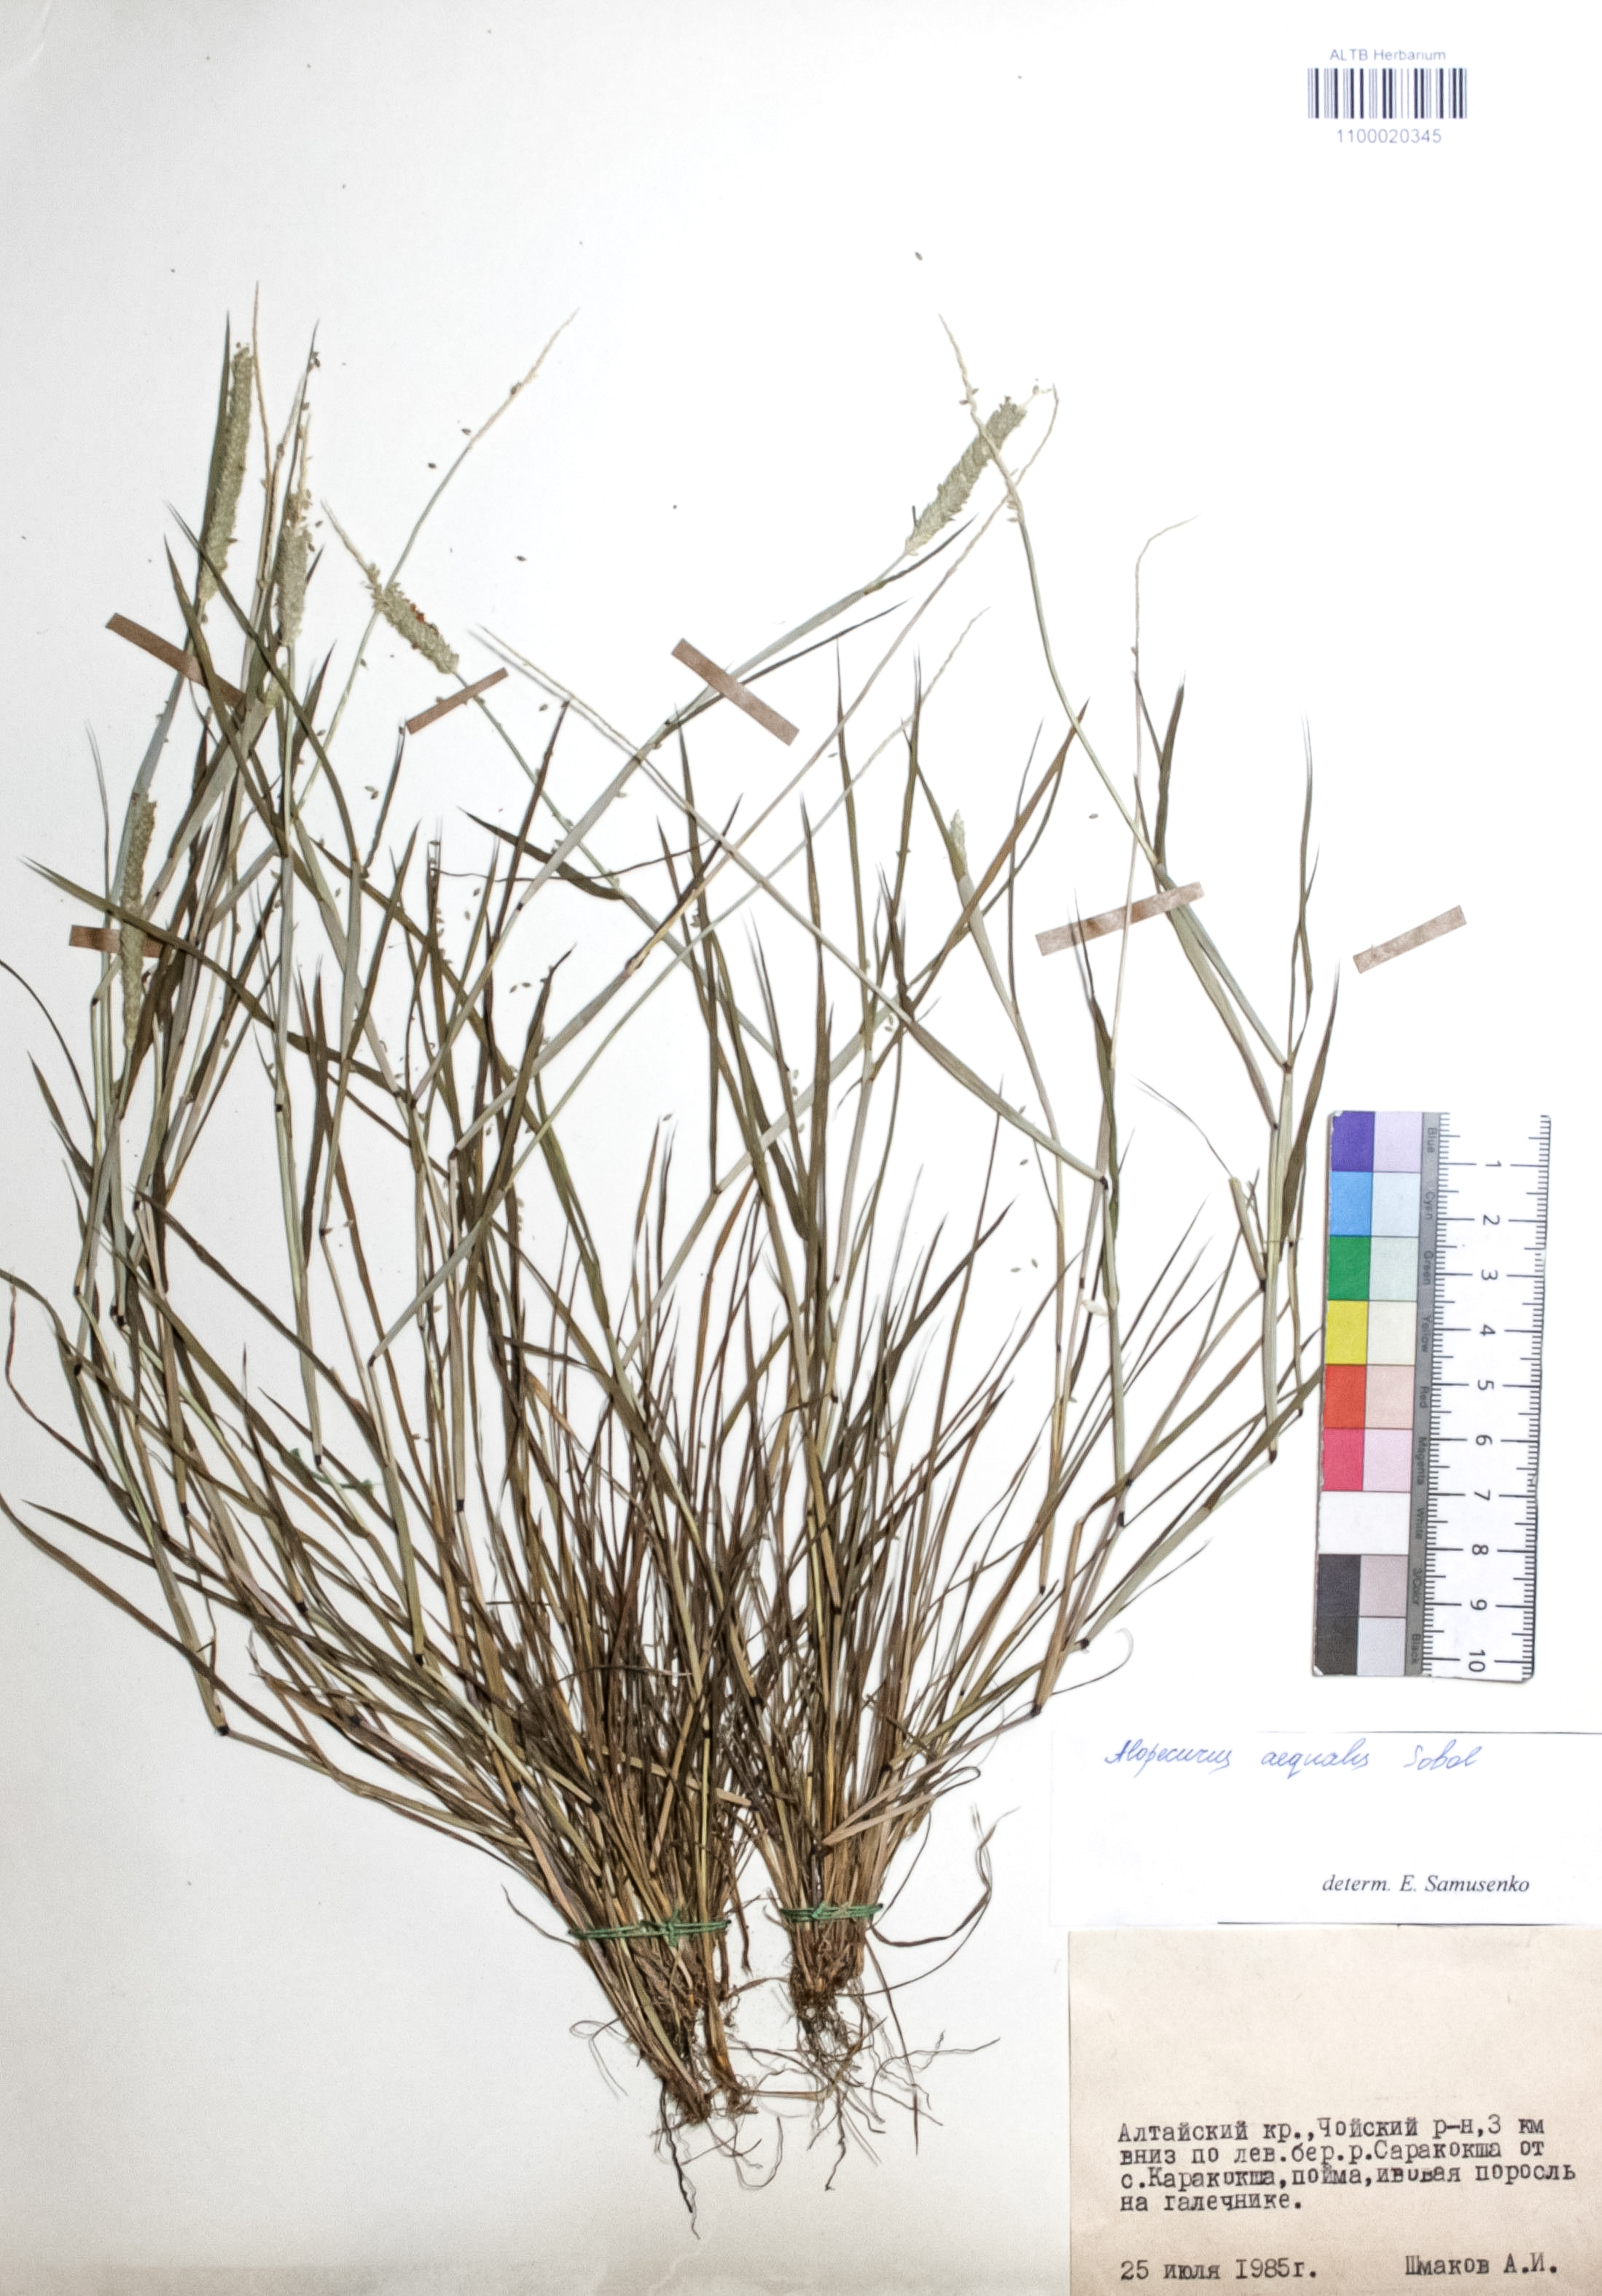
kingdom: Plantae
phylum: Tracheophyta
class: Liliopsida
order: Poales
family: Poaceae
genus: Alopecurus
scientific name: Alopecurus aequalis
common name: Orange foxtail
